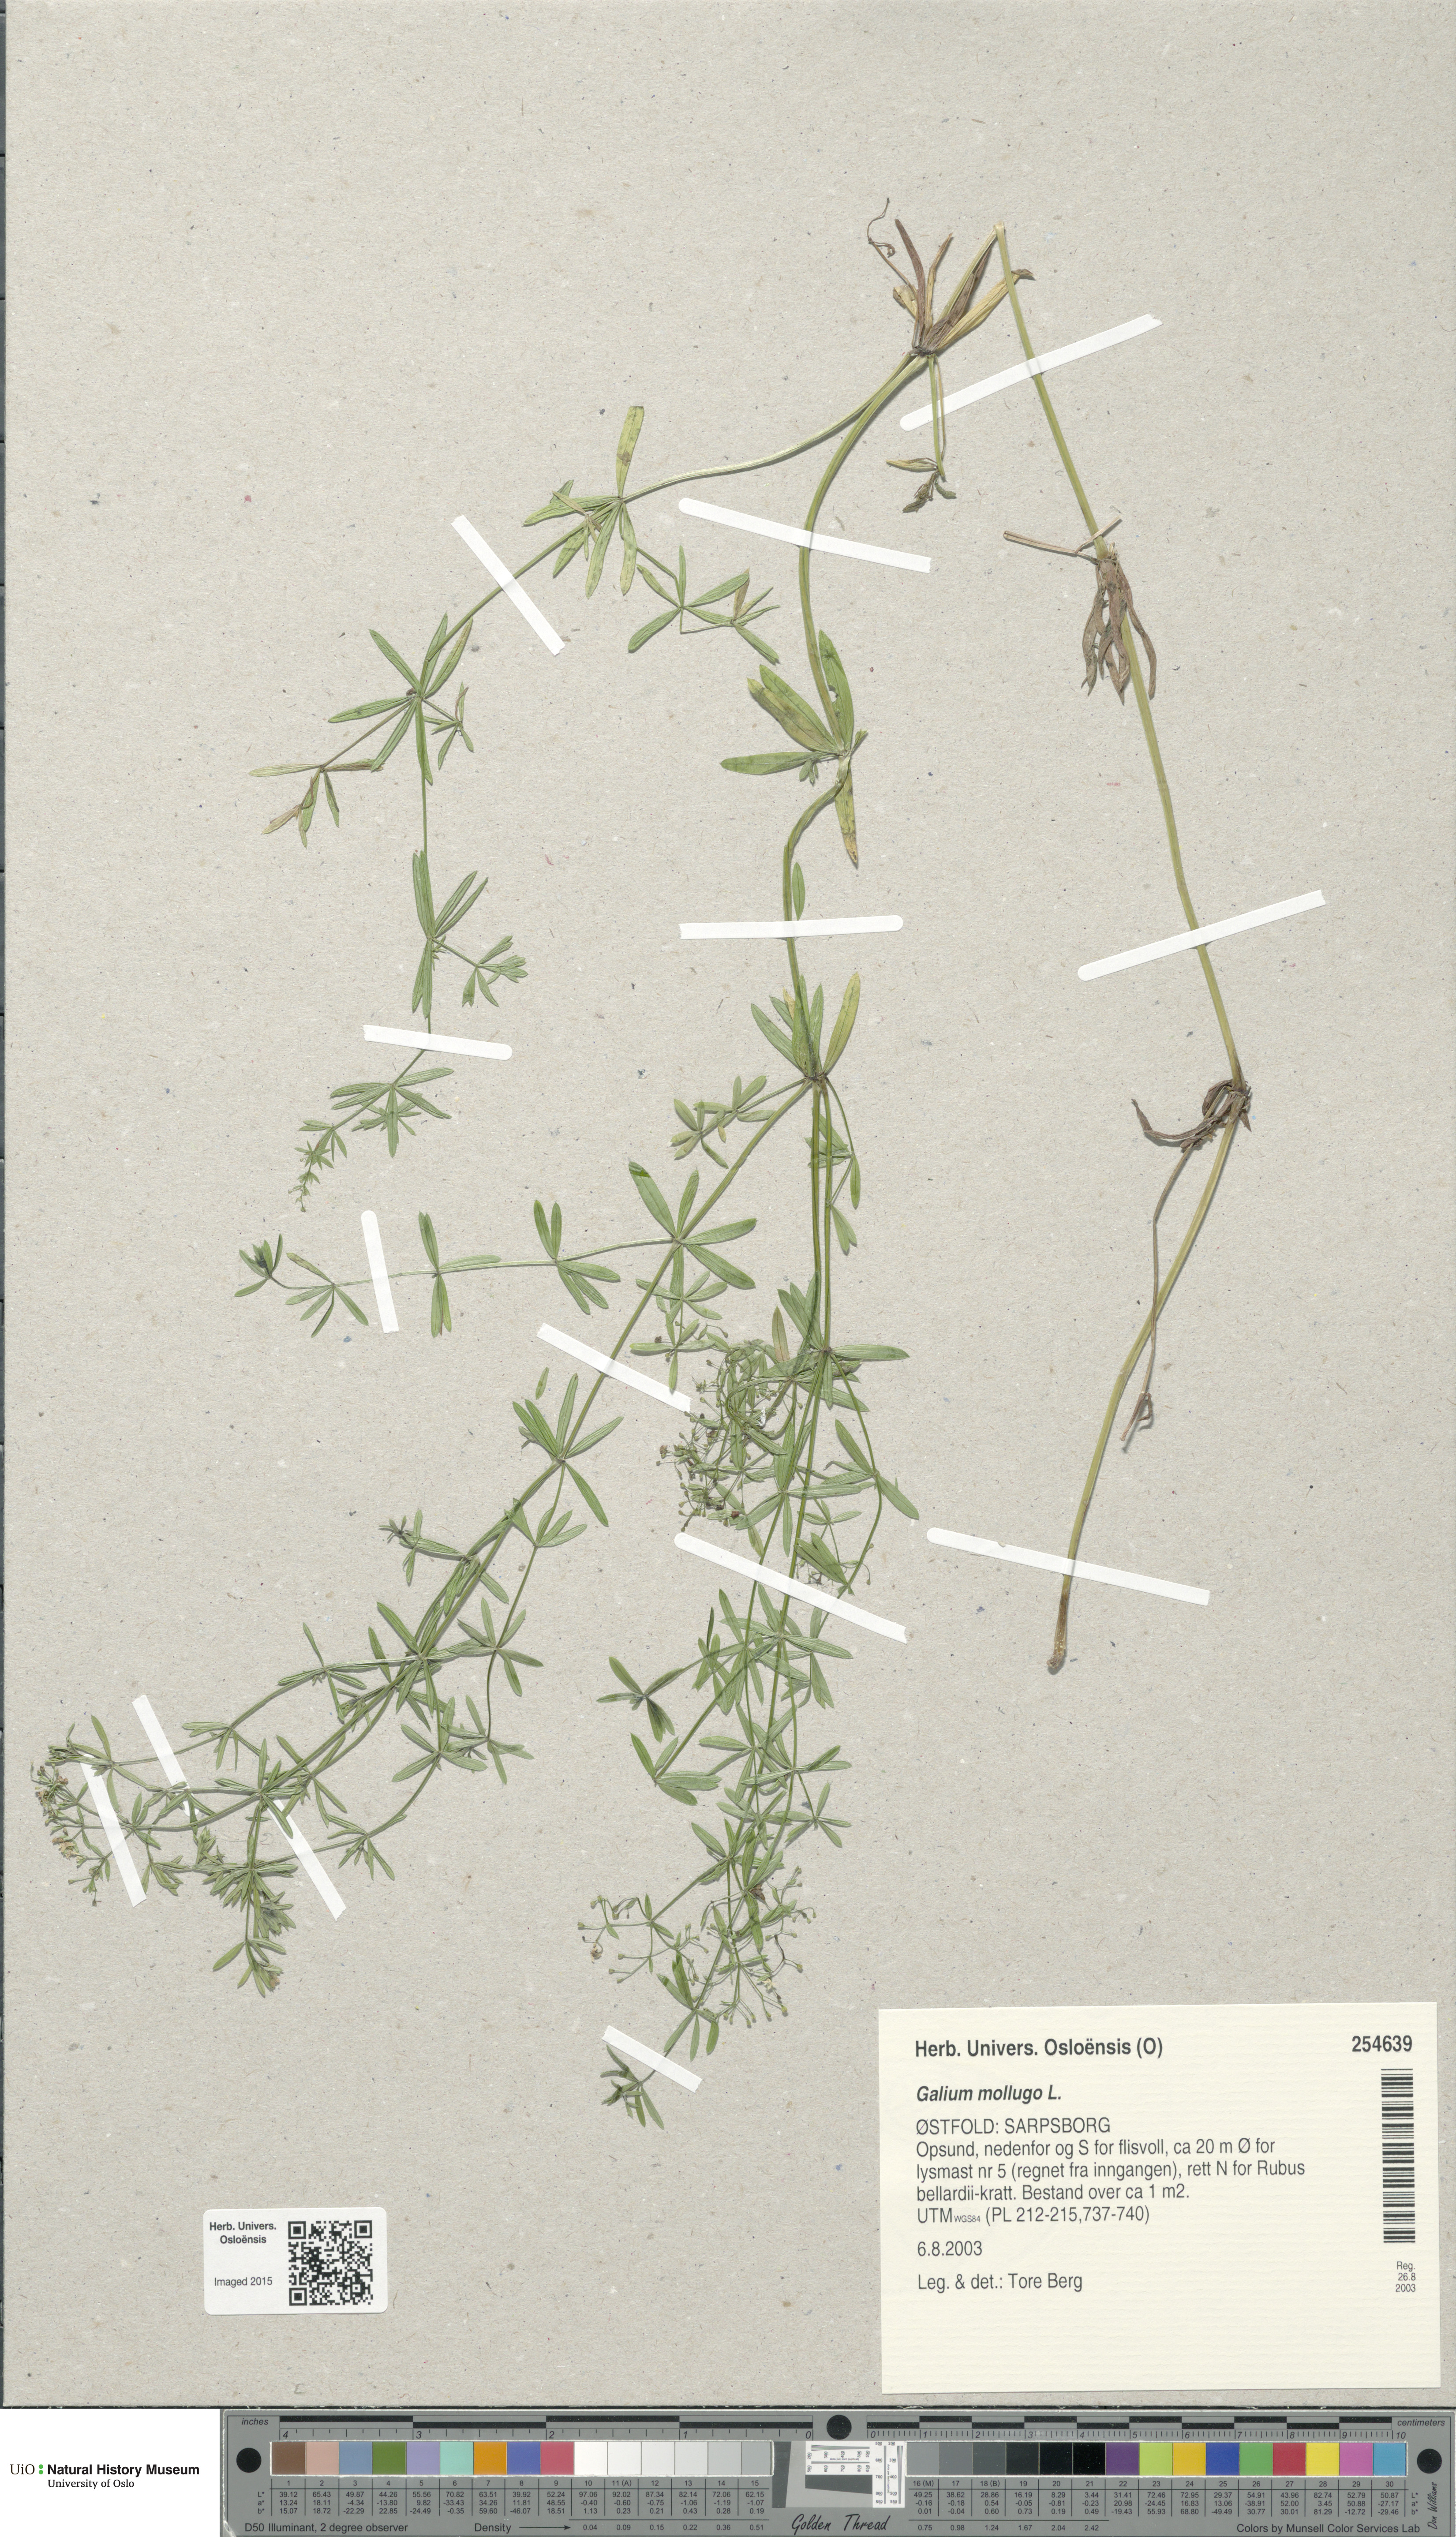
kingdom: Plantae
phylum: Tracheophyta
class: Magnoliopsida
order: Gentianales
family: Rubiaceae
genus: Galium
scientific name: Galium mollugo
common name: Hedge bedstraw
